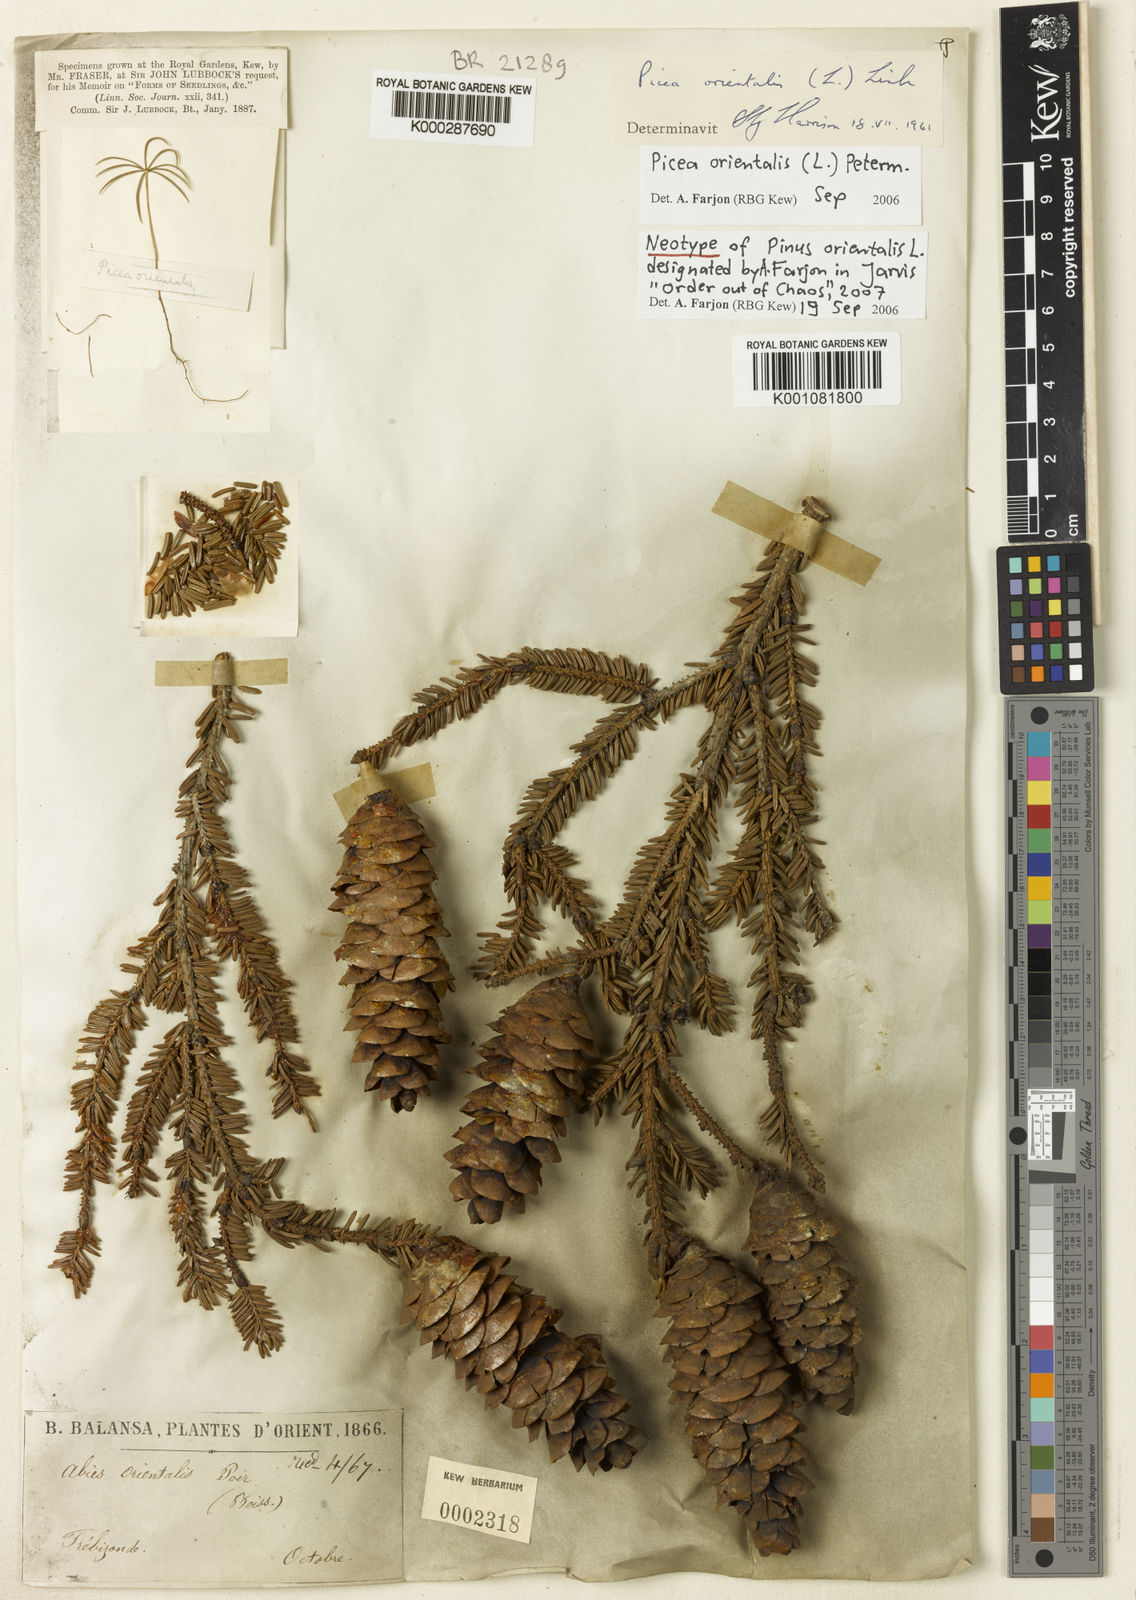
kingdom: Plantae
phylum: Tracheophyta
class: Pinopsida
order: Pinales
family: Pinaceae
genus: Picea
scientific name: Picea orientalis
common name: Oriental spruce
